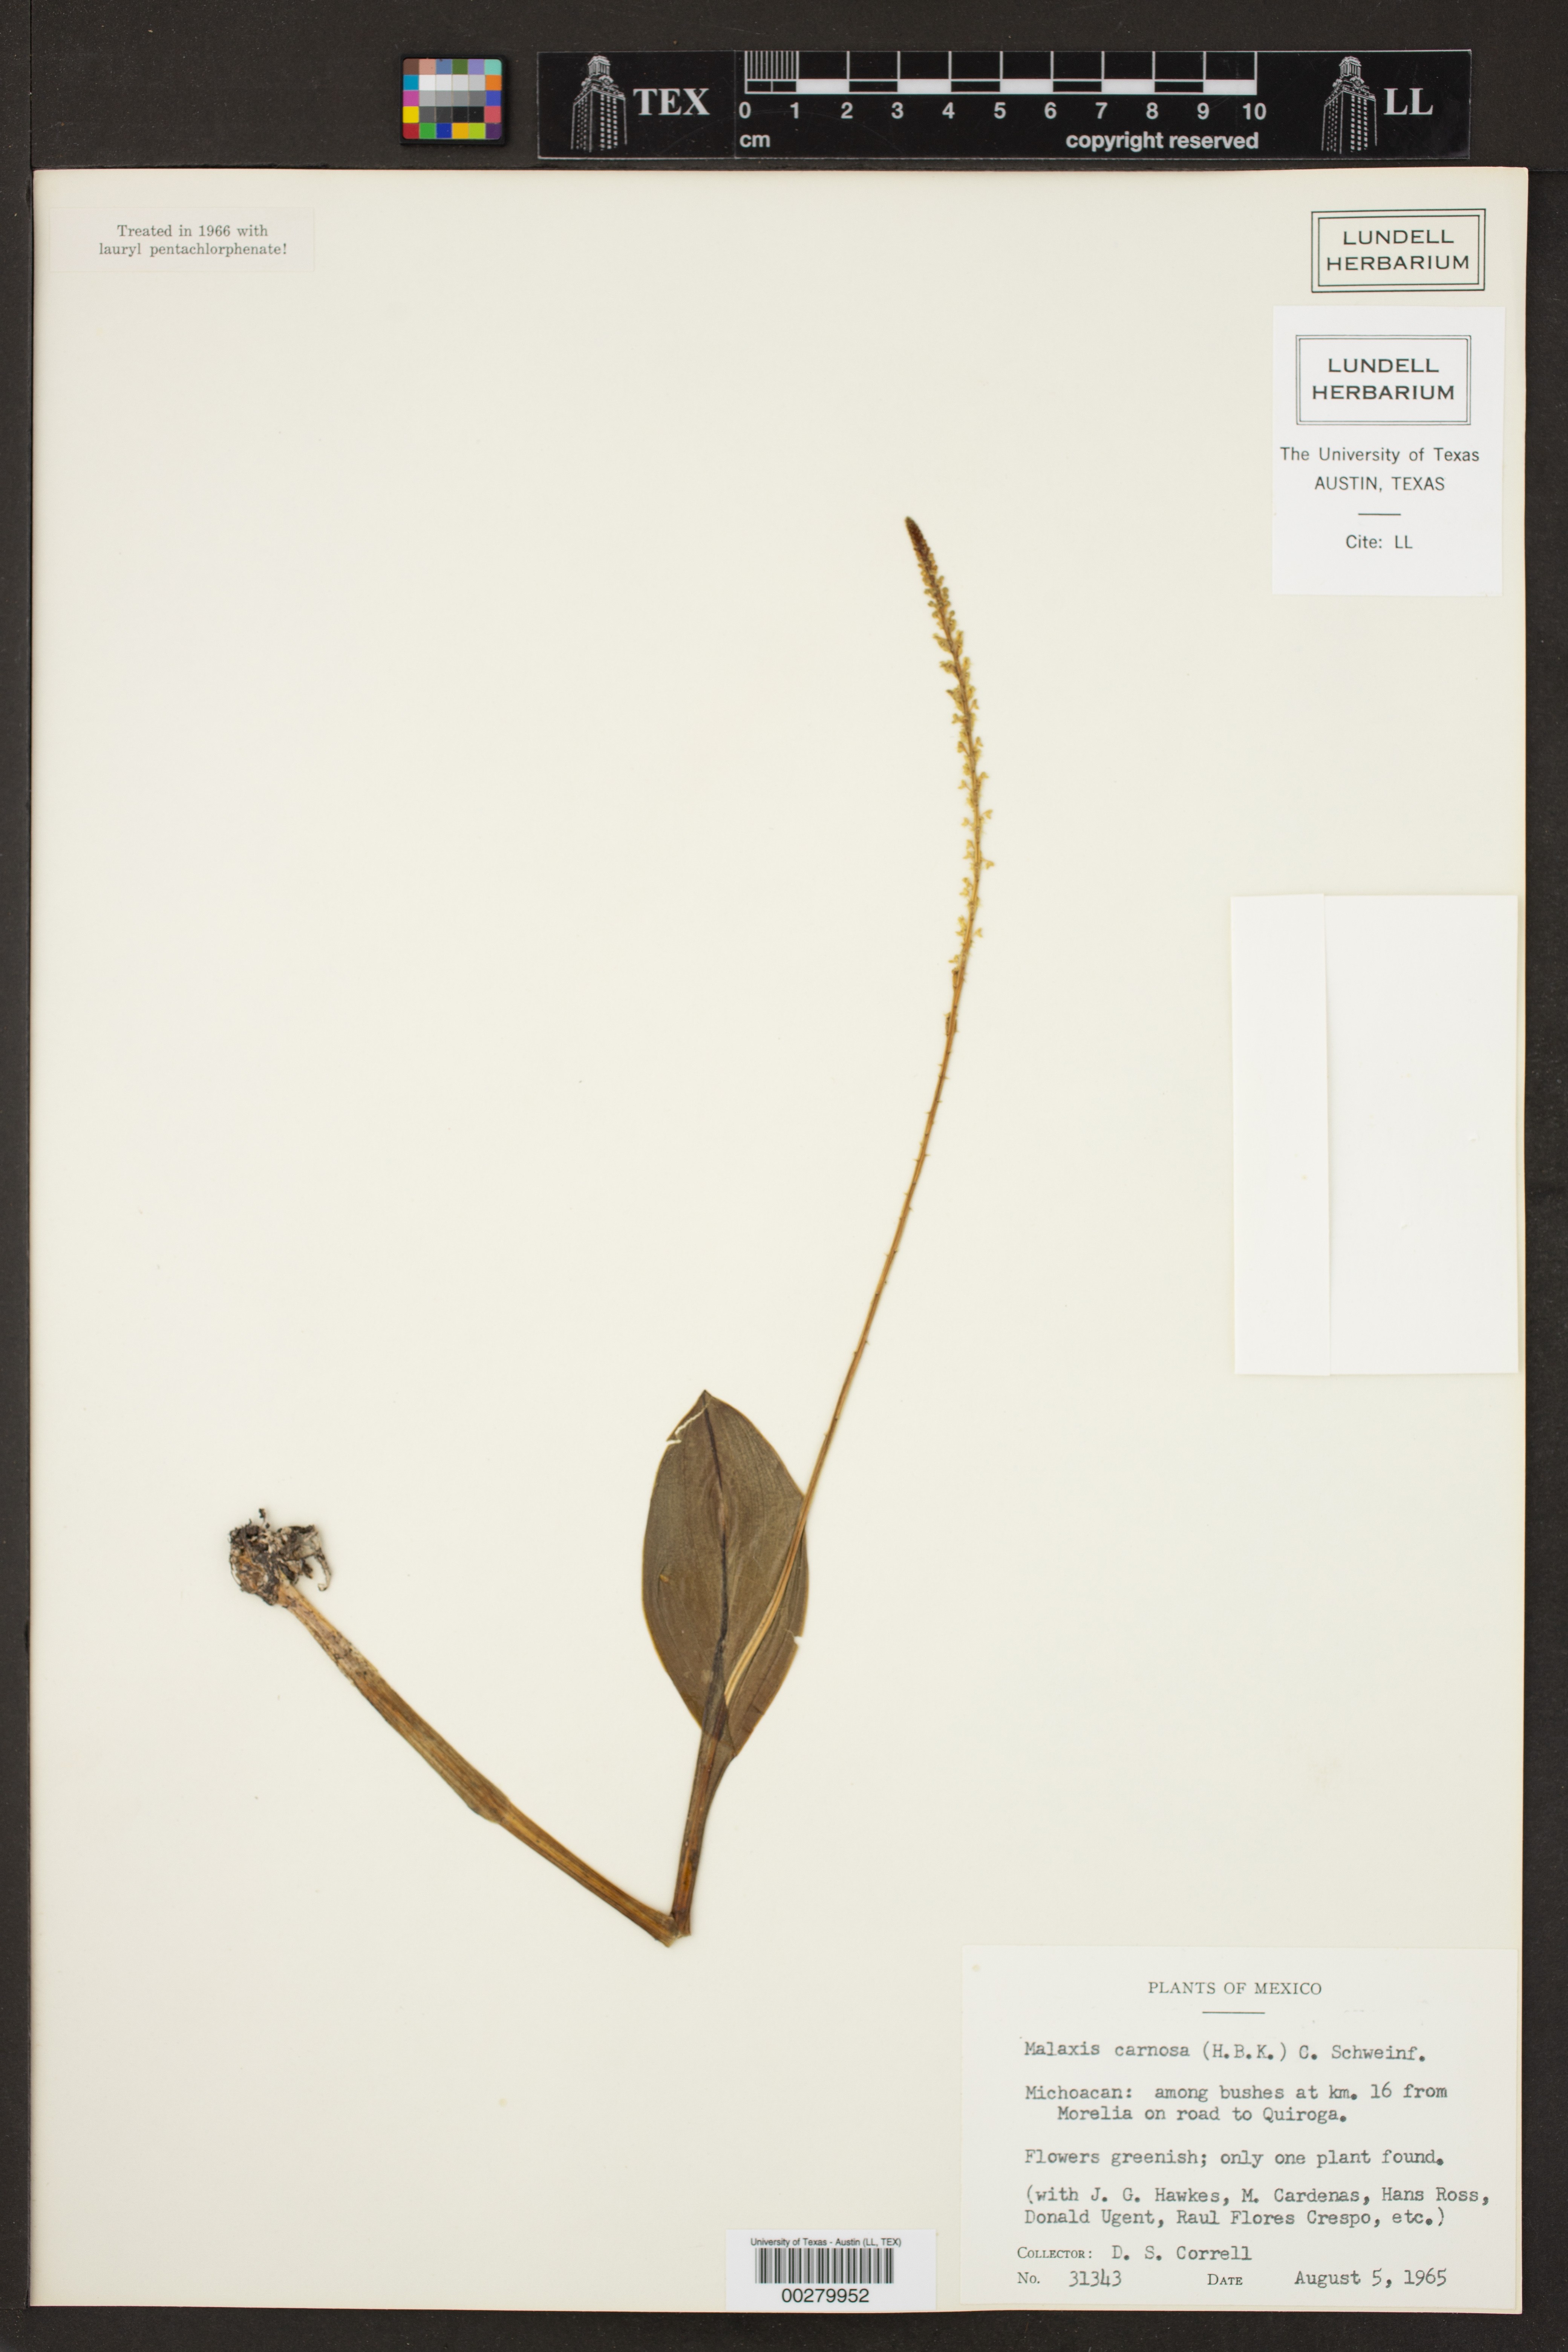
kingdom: Plantae
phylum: Tracheophyta
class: Liliopsida
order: Asparagales
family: Orchidaceae
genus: Malaxis
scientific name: Malaxis carnosa
